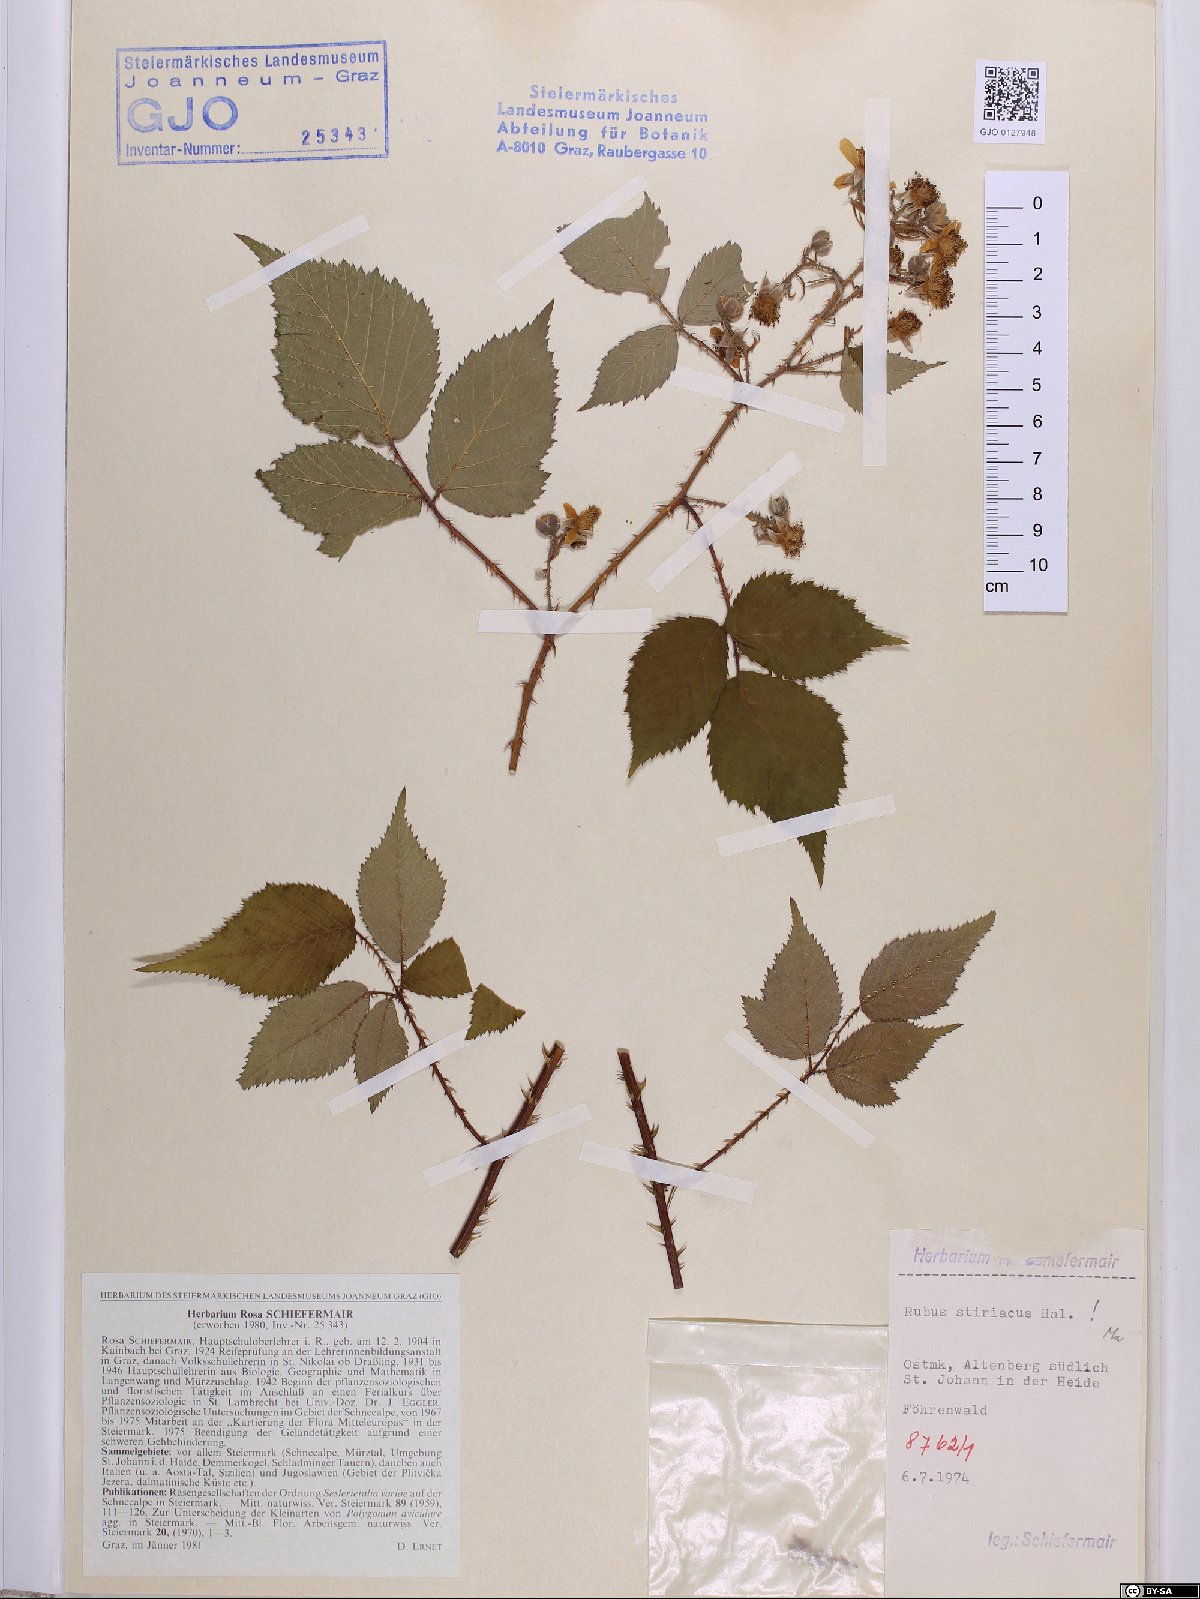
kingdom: Plantae
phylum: Tracheophyta
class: Magnoliopsida
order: Rosales
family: Rosaceae
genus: Rubus
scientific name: Rubus styriacus
